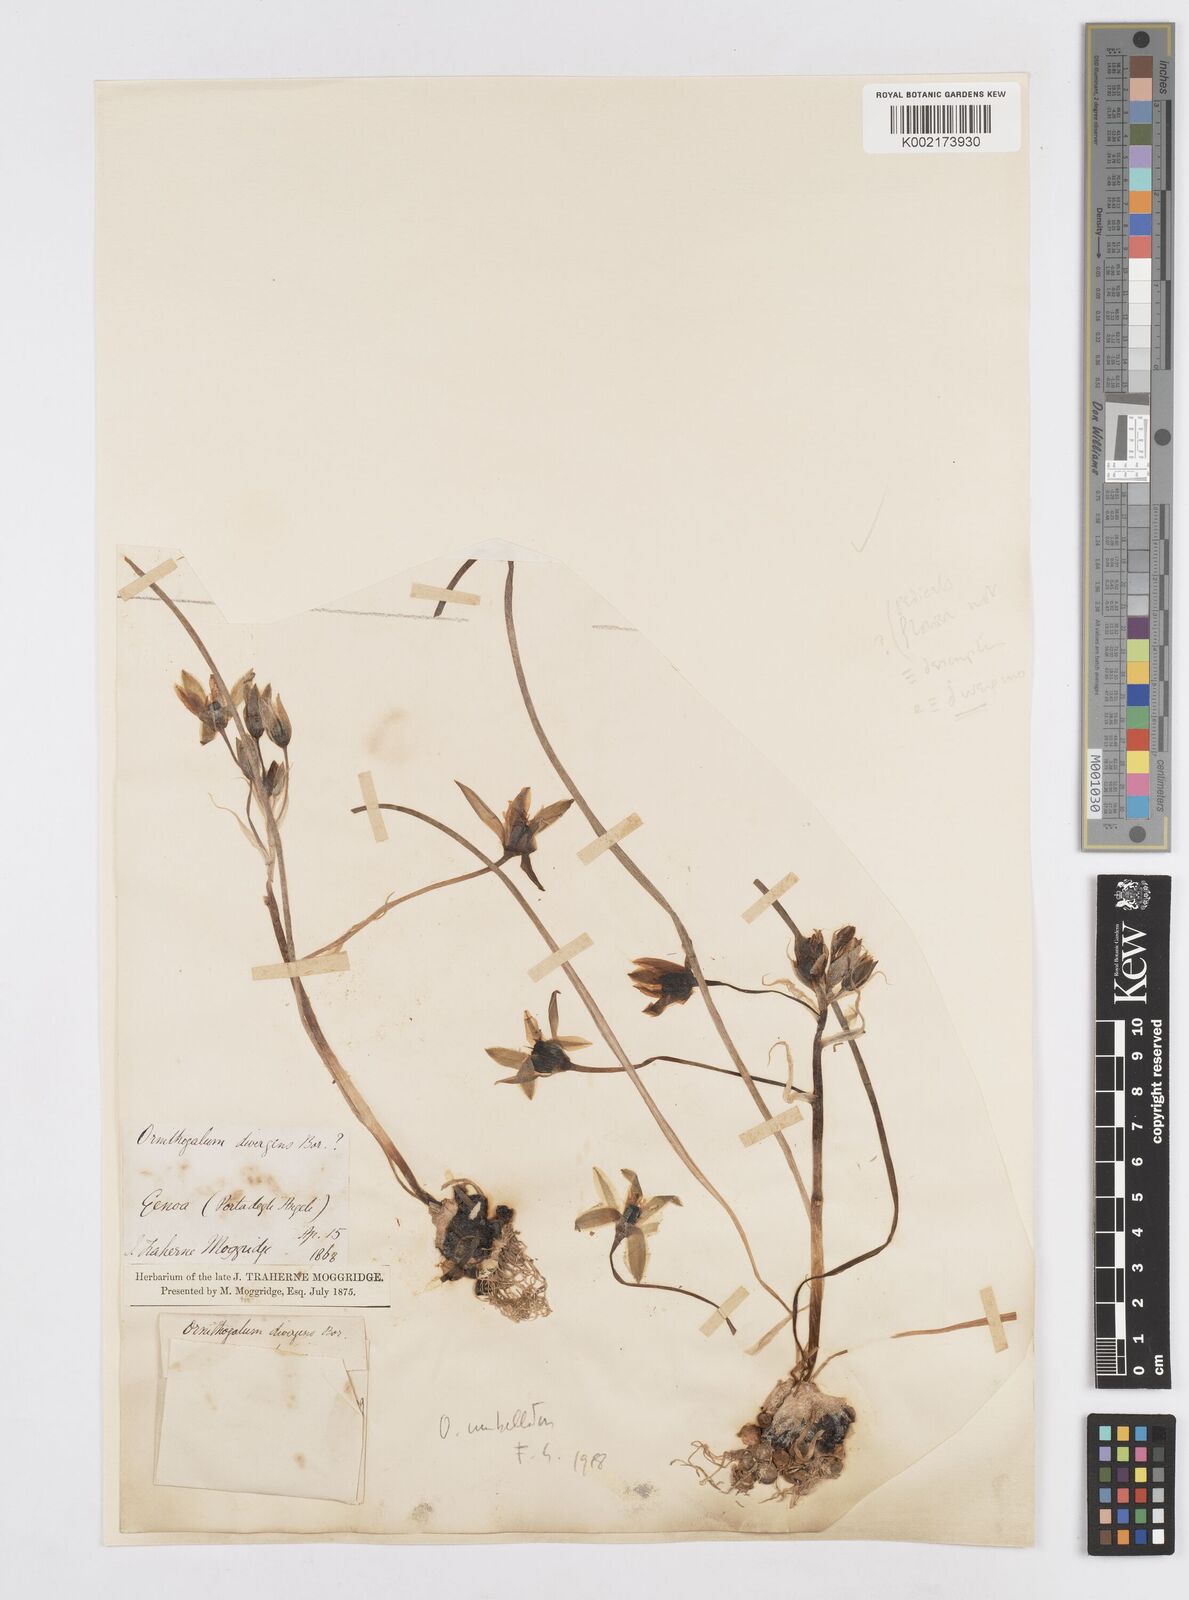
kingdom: Plantae
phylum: Tracheophyta
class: Liliopsida
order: Asparagales
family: Asparagaceae
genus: Ornithogalum
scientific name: Ornithogalum refractum
